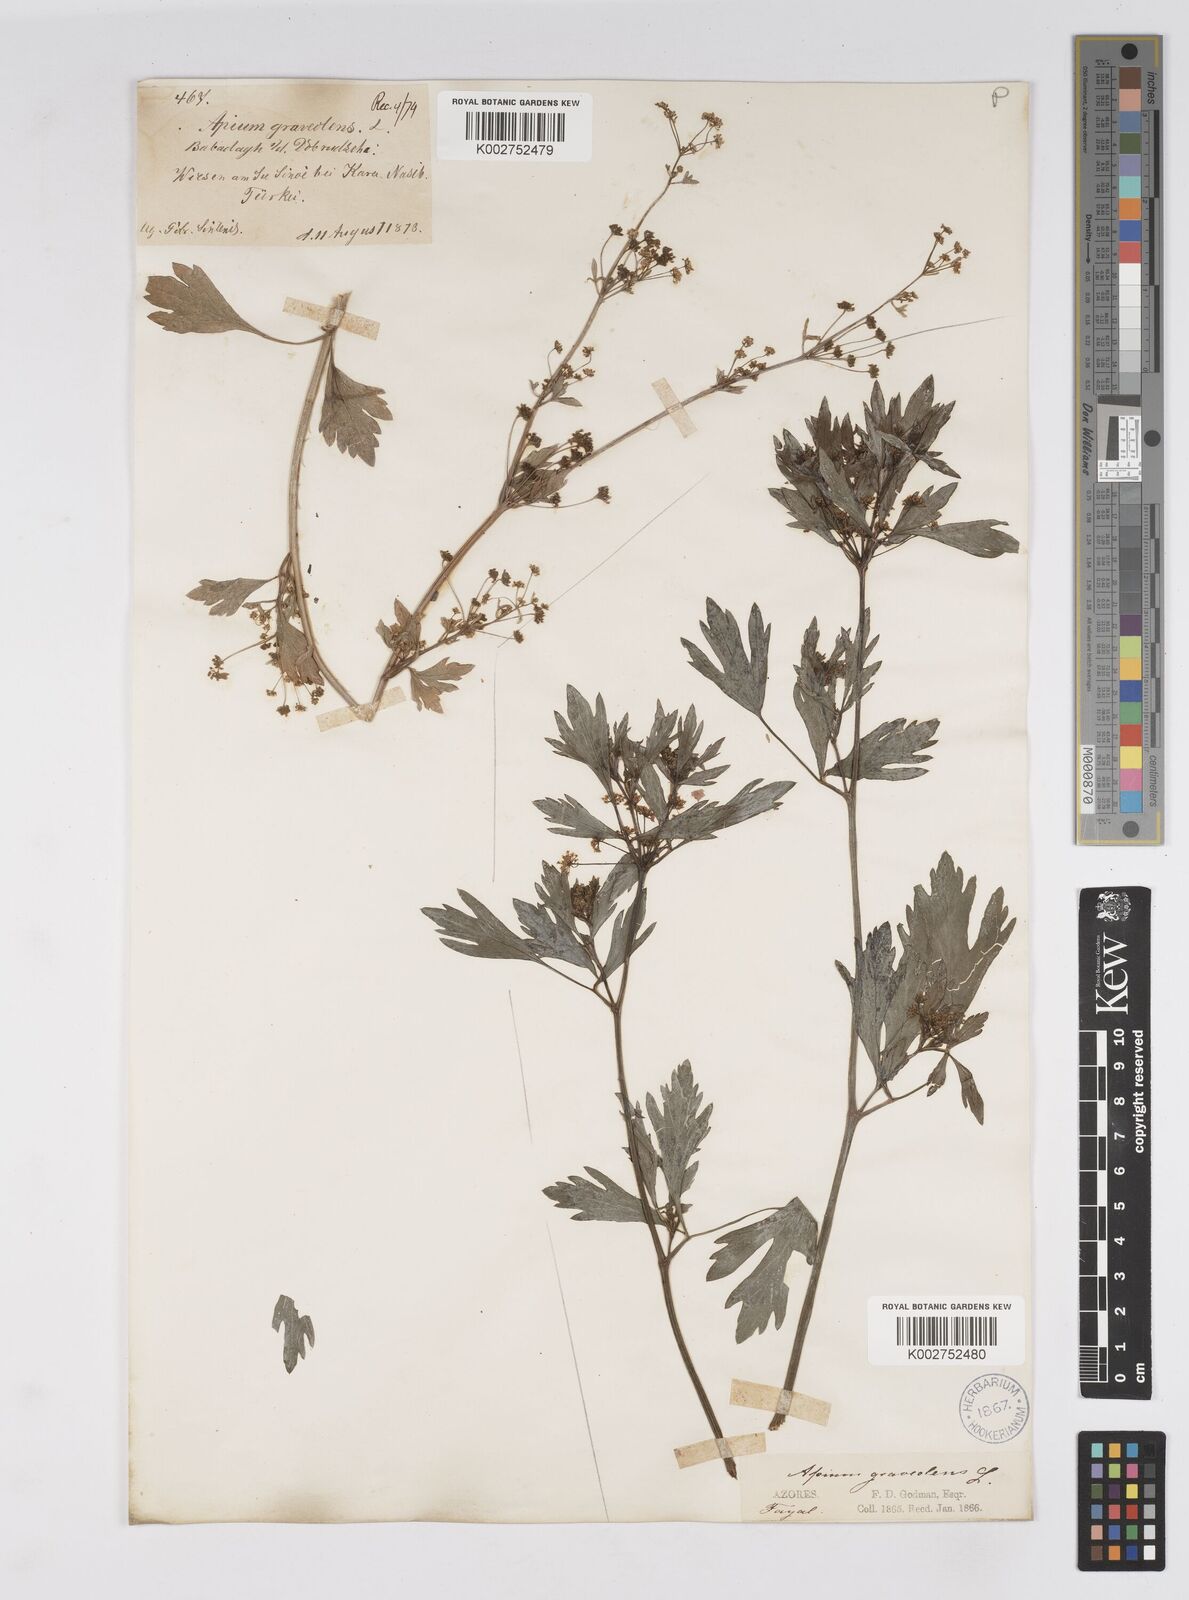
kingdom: Plantae
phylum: Tracheophyta
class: Magnoliopsida
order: Apiales
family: Apiaceae
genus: Apium
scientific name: Apium graveolens
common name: Wild celery
